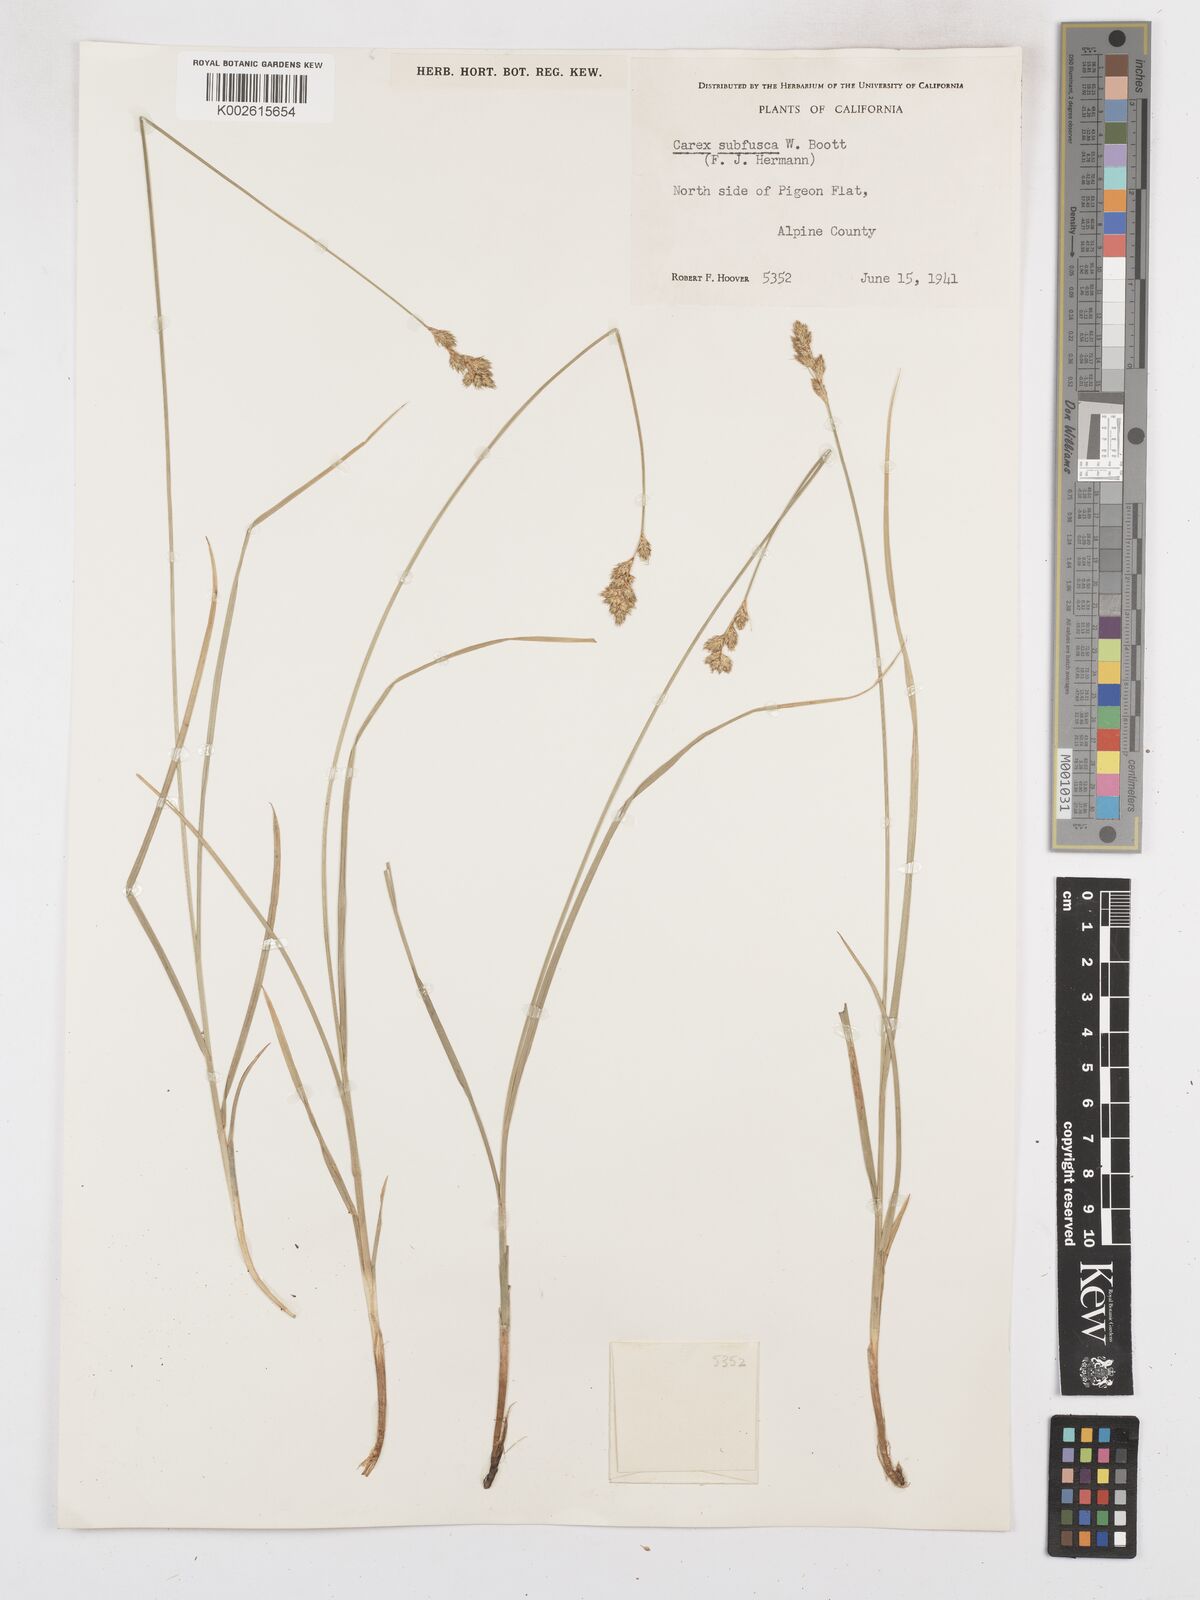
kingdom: Plantae
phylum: Tracheophyta
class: Liliopsida
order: Poales
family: Cyperaceae
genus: Carex
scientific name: Carex subfusca
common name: Brown sedge
